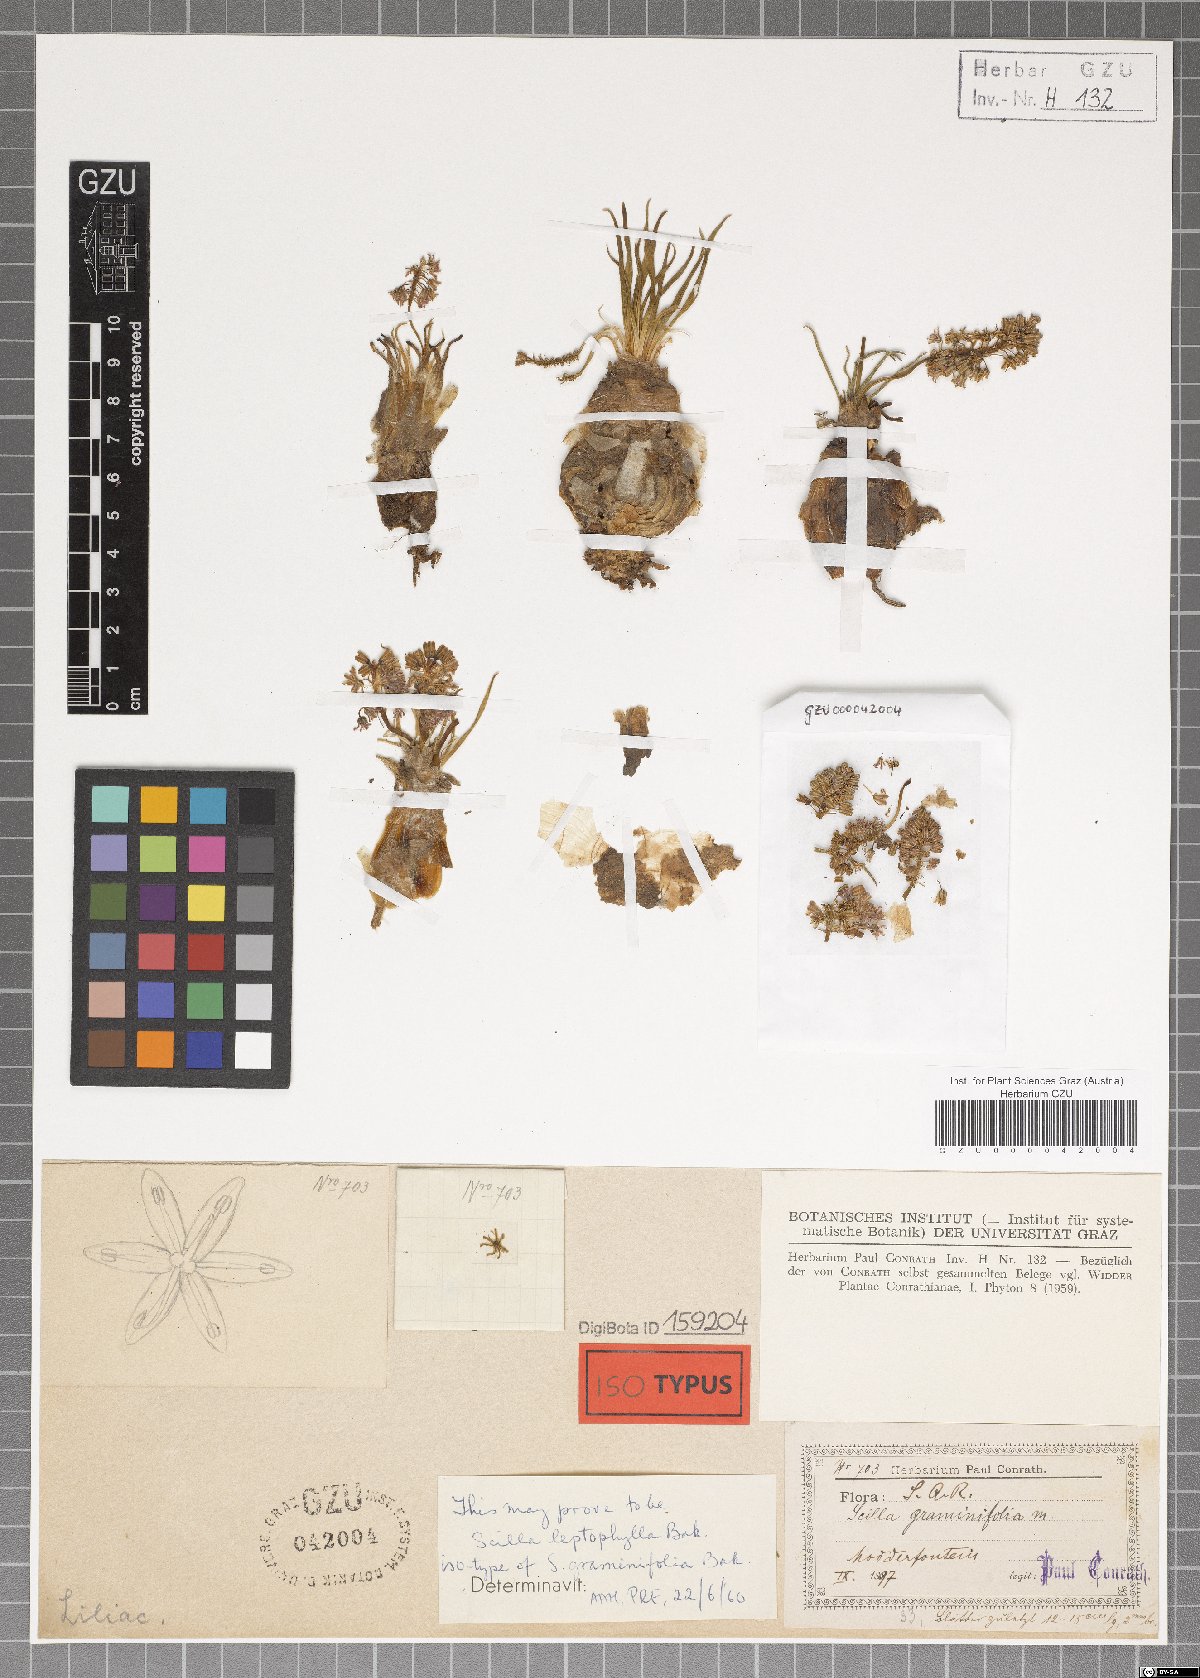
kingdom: Plantae
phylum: Tracheophyta
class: Liliopsida
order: Asparagales
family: Asparagaceae
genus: Ledebouria
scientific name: Ledebouria leptophylla
